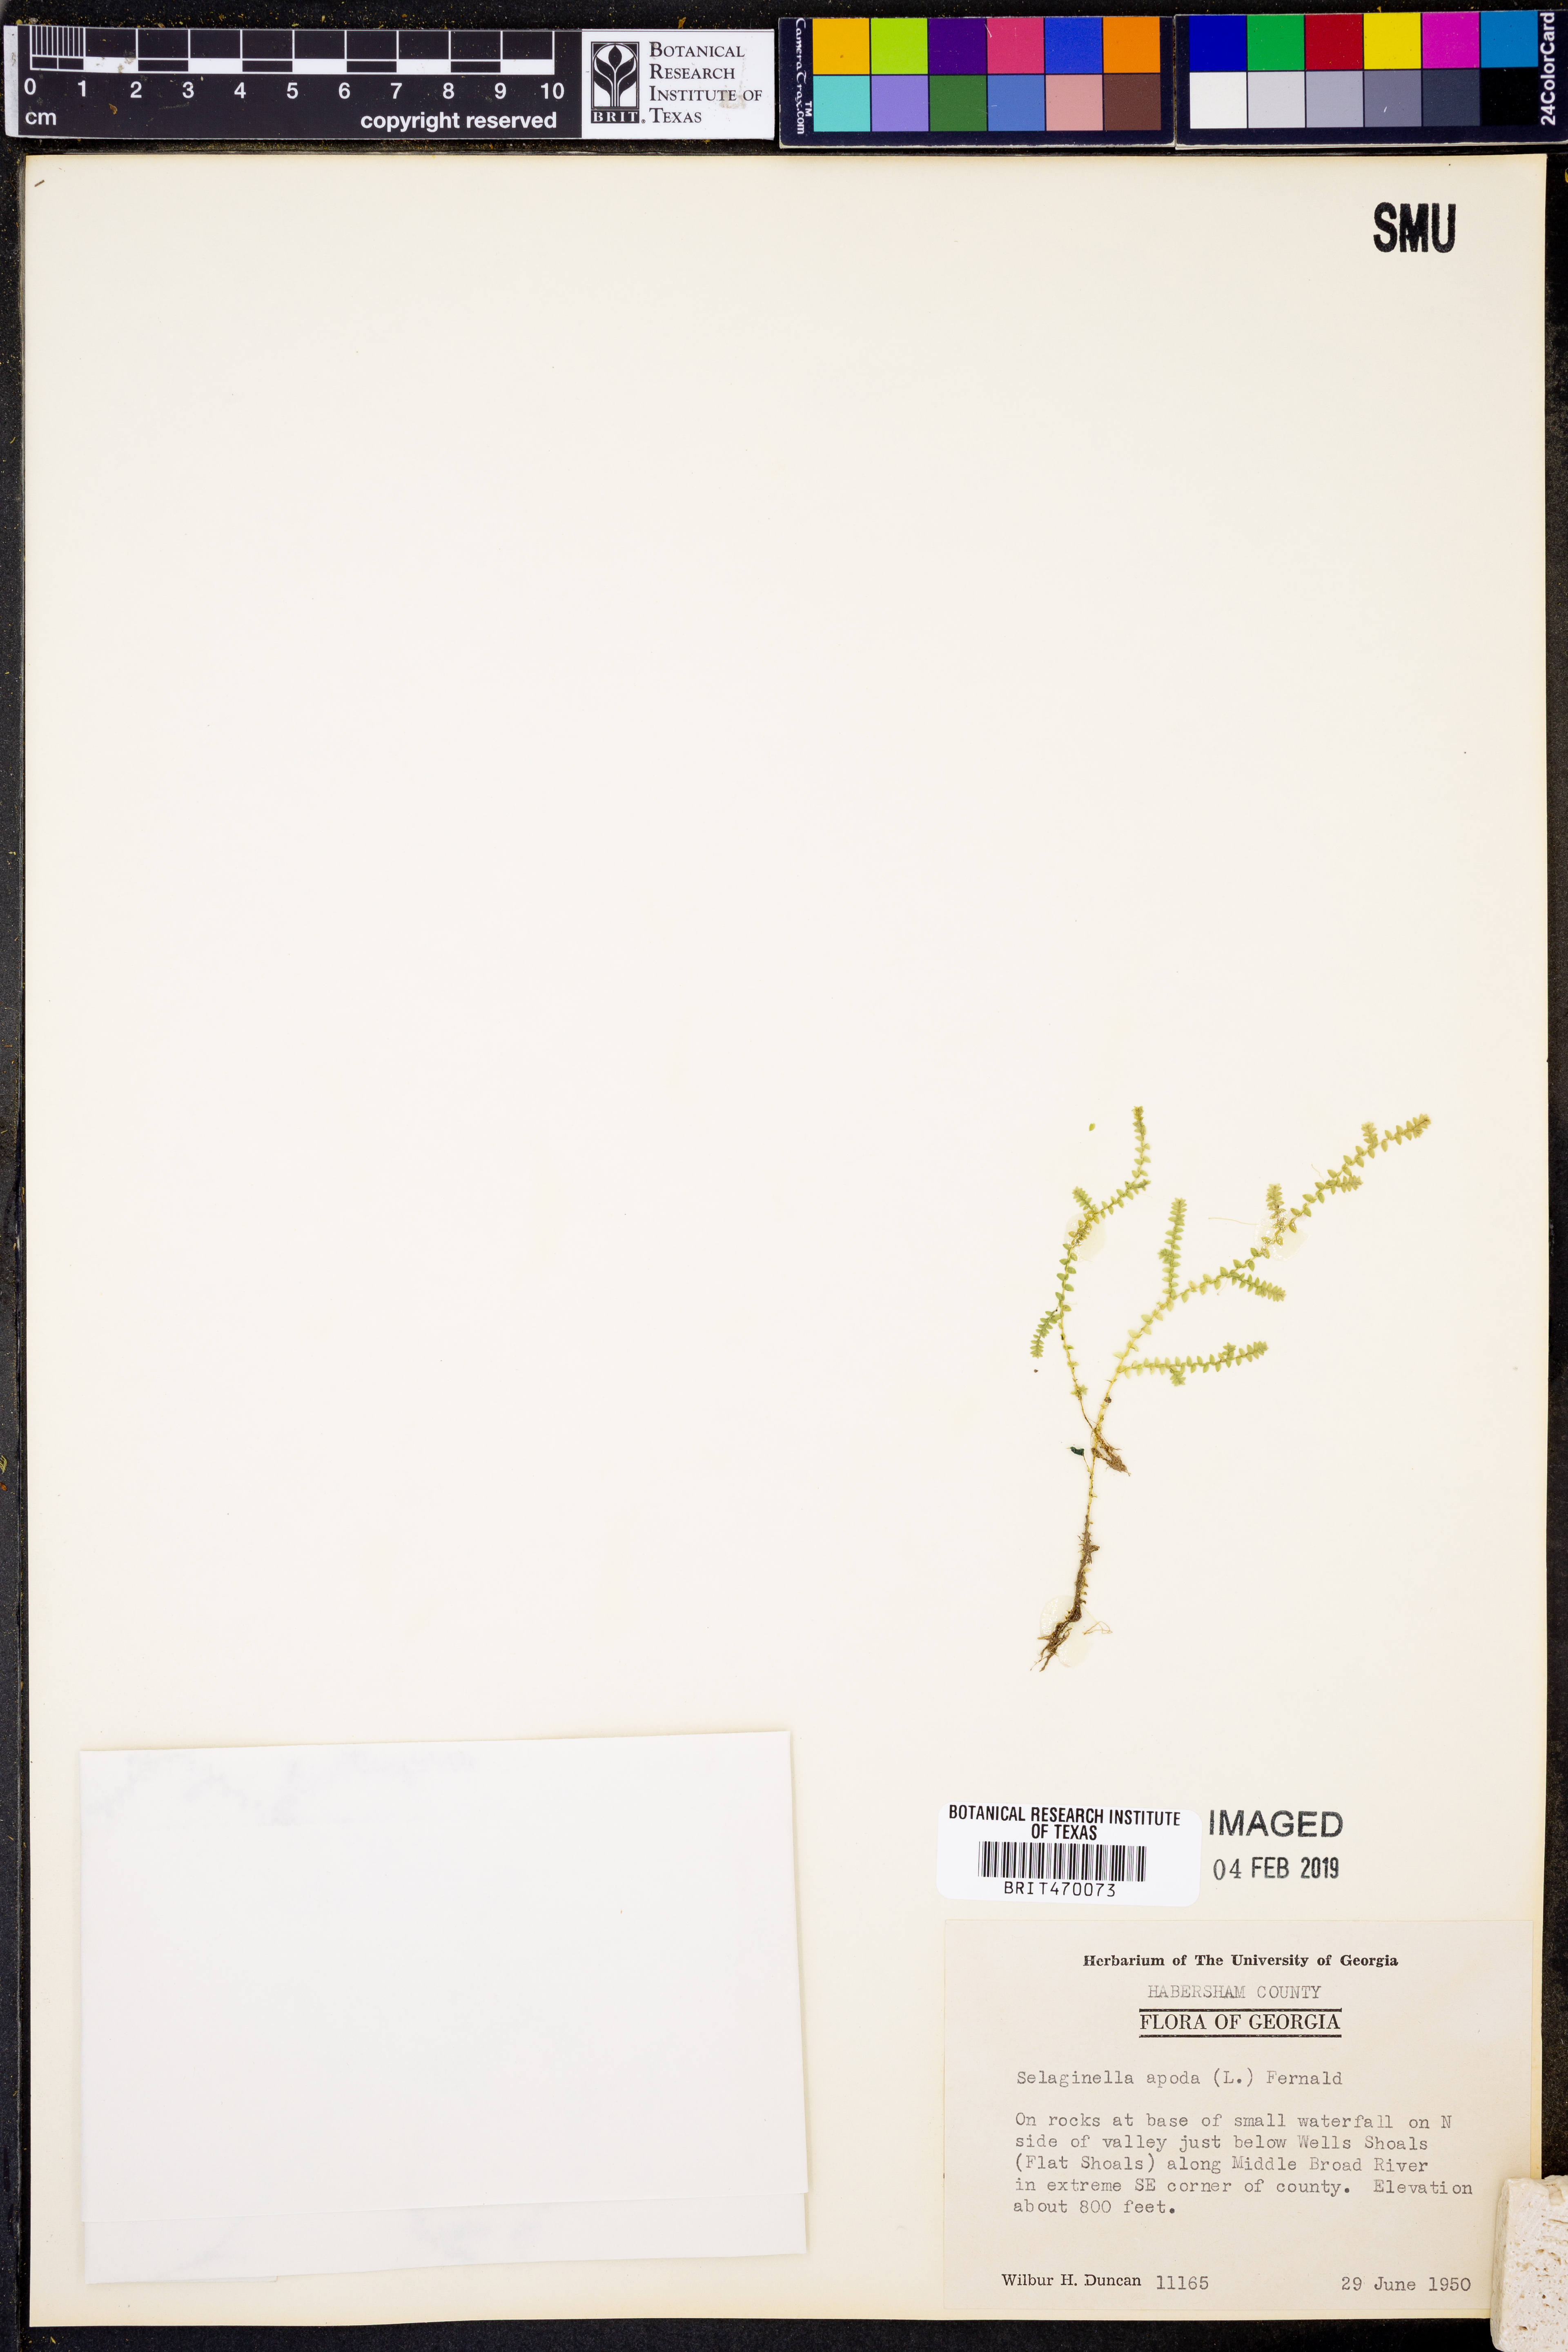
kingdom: Plantae
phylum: Tracheophyta
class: Lycopodiopsida
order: Selaginellales
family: Selaginellaceae
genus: Selaginella
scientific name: Selaginella apoda
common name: Creeping spikemoss
